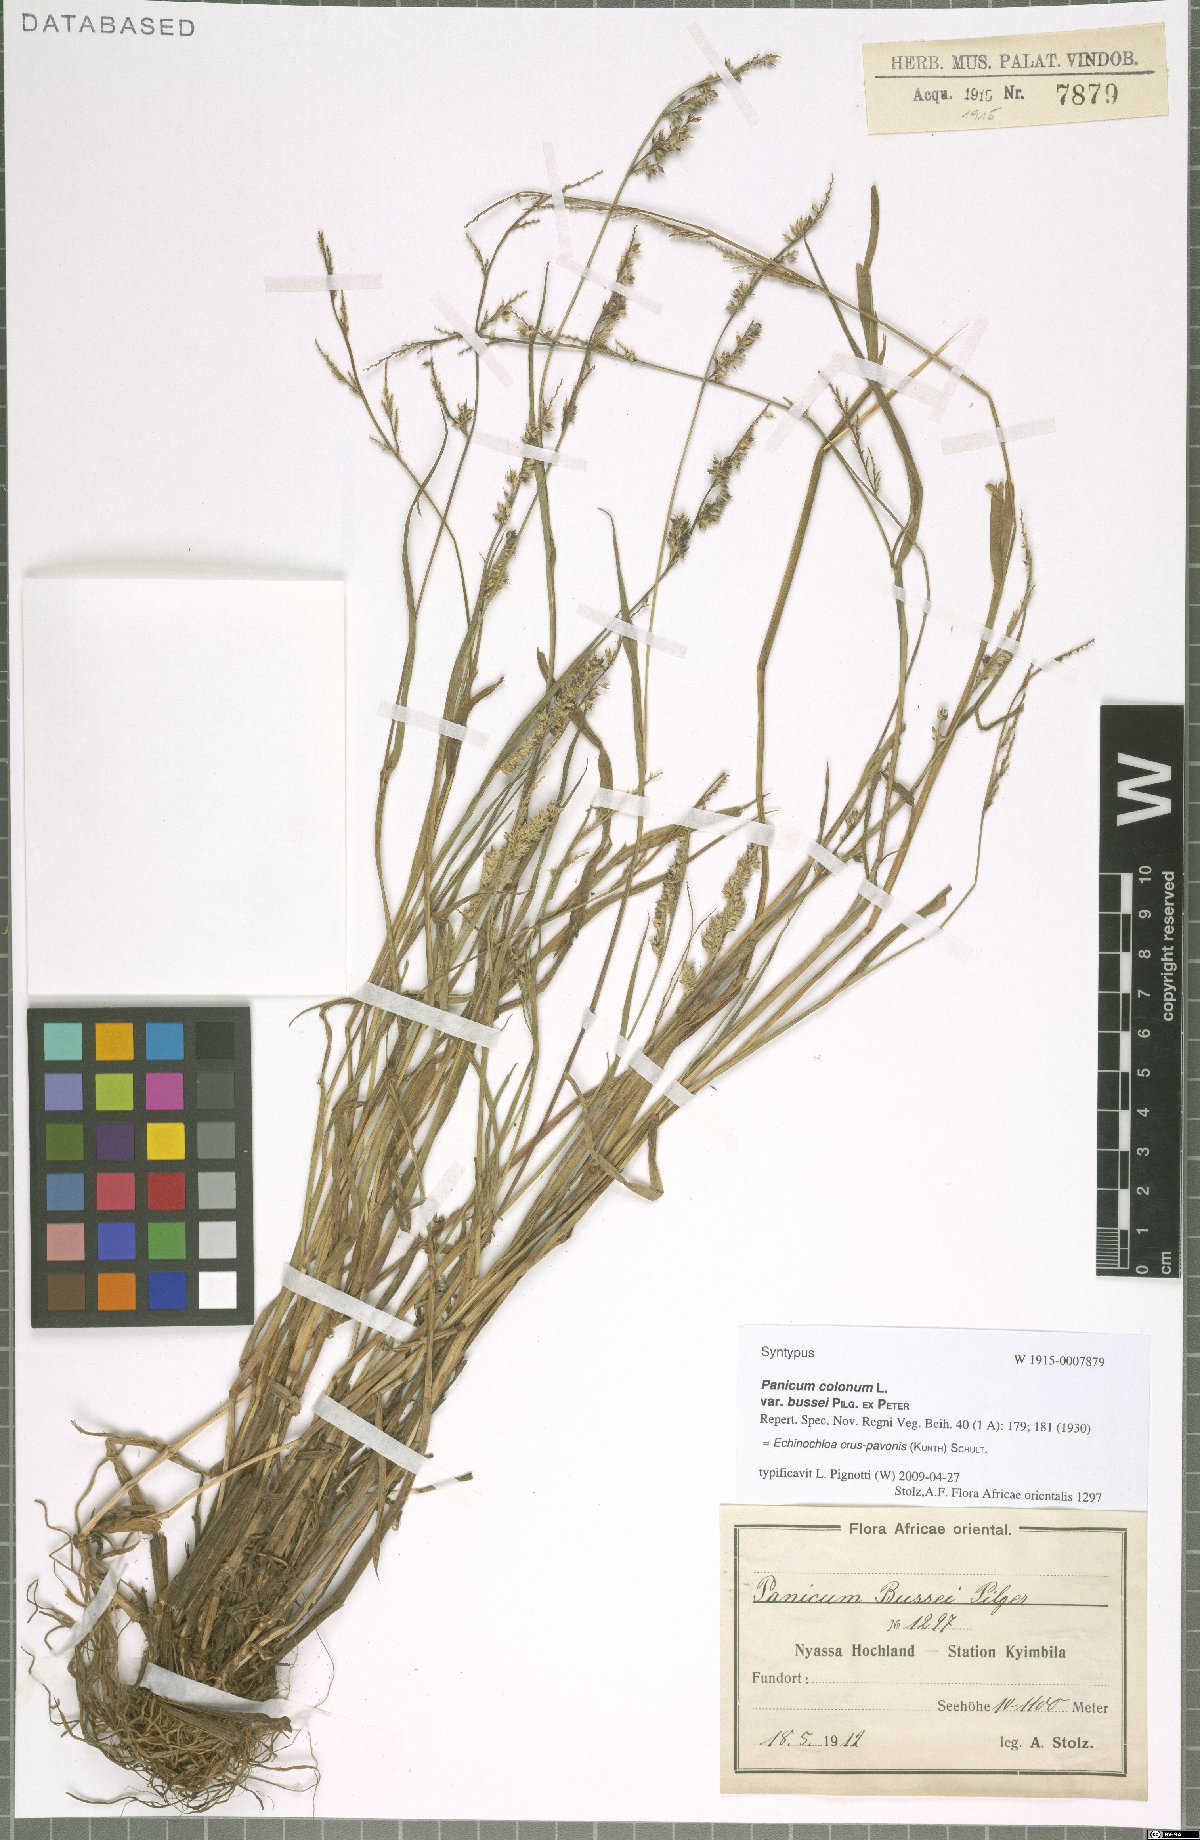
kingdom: Plantae
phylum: Tracheophyta
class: Liliopsida
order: Poales
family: Poaceae
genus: Echinochloa
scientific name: Echinochloa crus-pavonis
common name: Gulf cockspur grass
